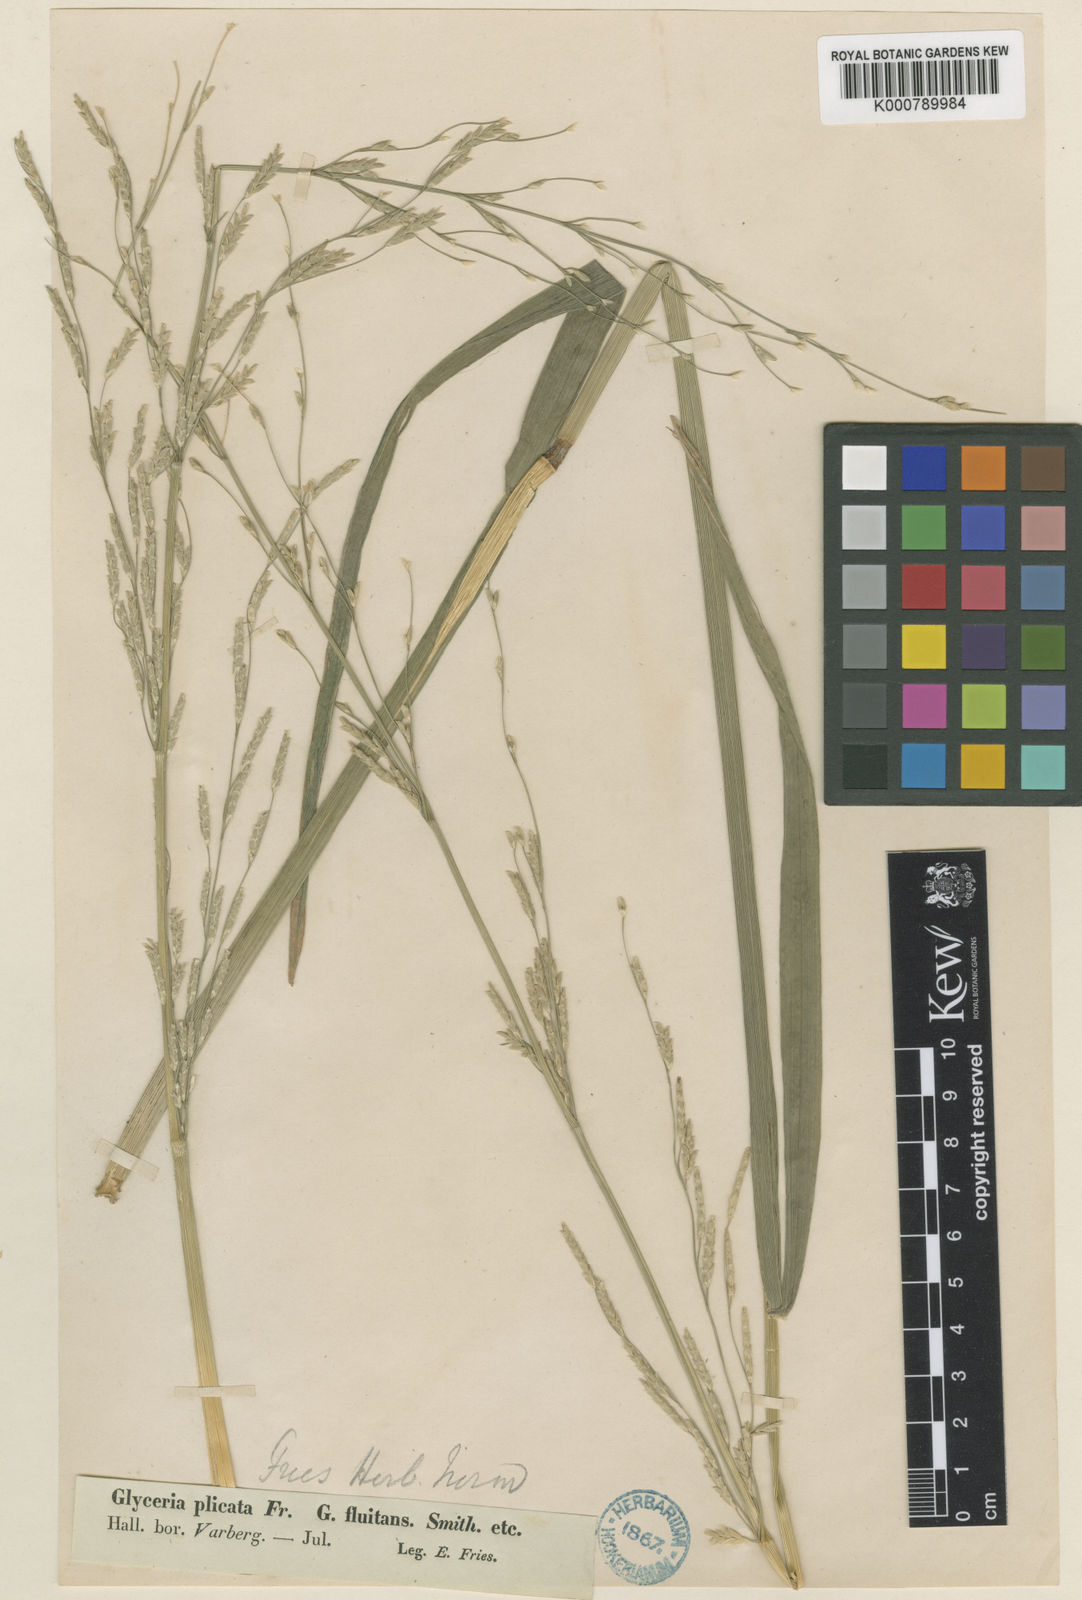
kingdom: Plantae
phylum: Tracheophyta
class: Liliopsida
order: Poales
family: Poaceae
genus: Glyceria
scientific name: Glyceria notata
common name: Plicate sweet-grass
